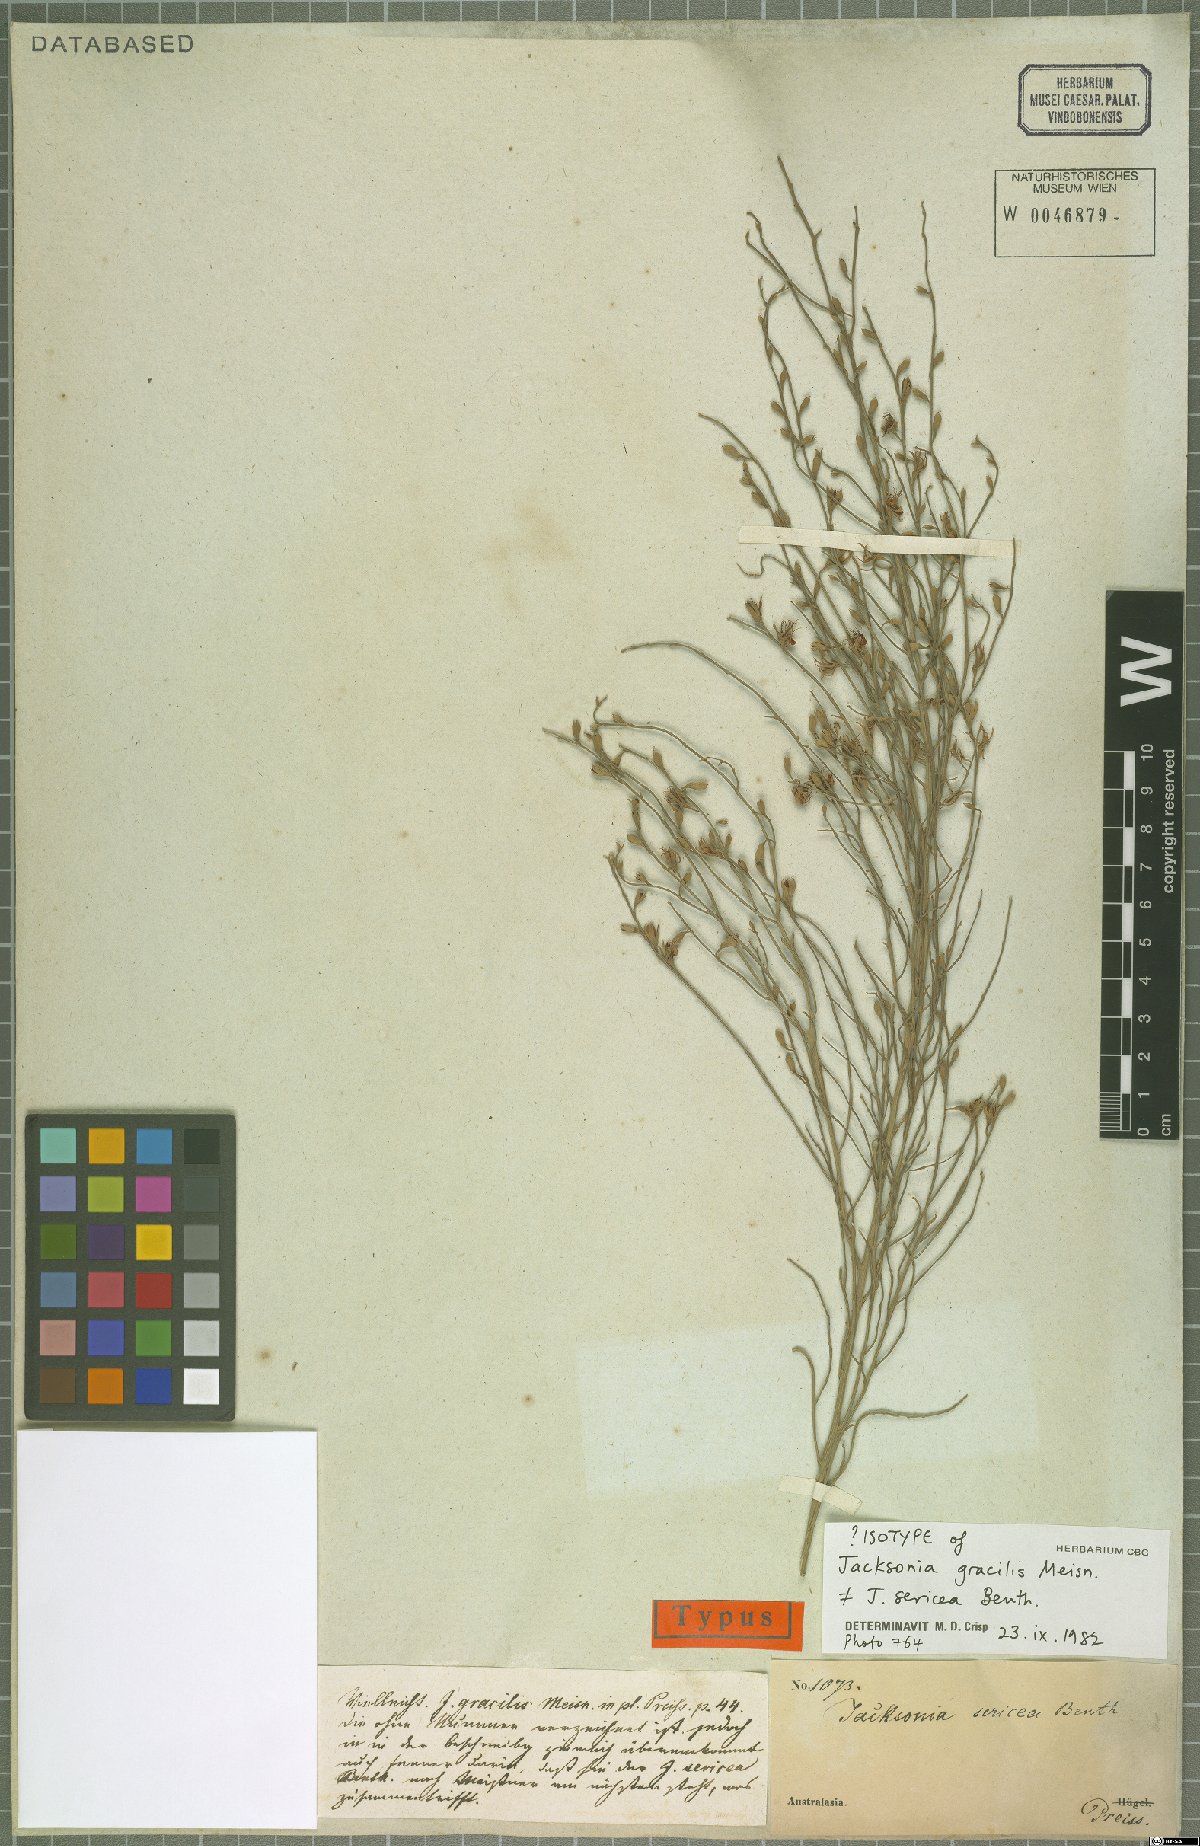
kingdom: Plantae
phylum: Tracheophyta
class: Magnoliopsida
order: Fabales
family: Fabaceae
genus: Jacksonia
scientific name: Jacksonia sericea
